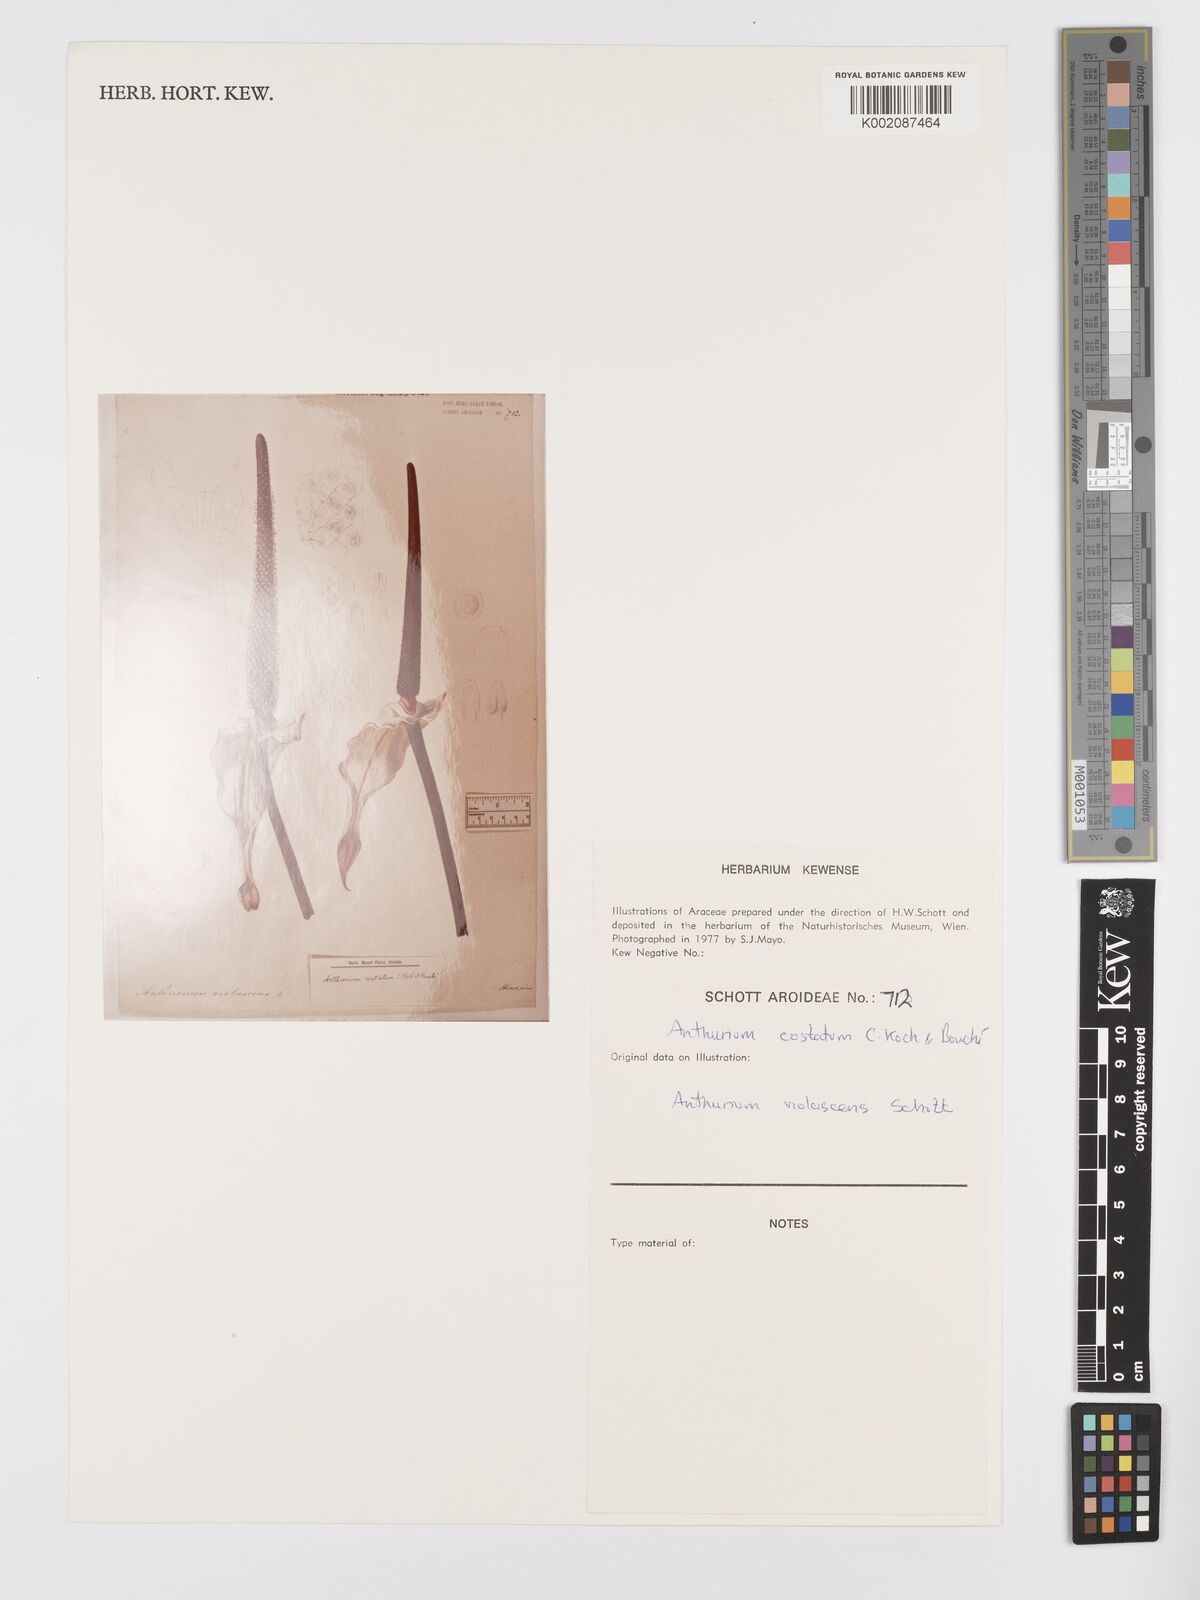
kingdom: Plantae
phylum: Tracheophyta
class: Liliopsida
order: Alismatales
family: Araceae
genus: Anthurium
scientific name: Anthurium macrophyllum
